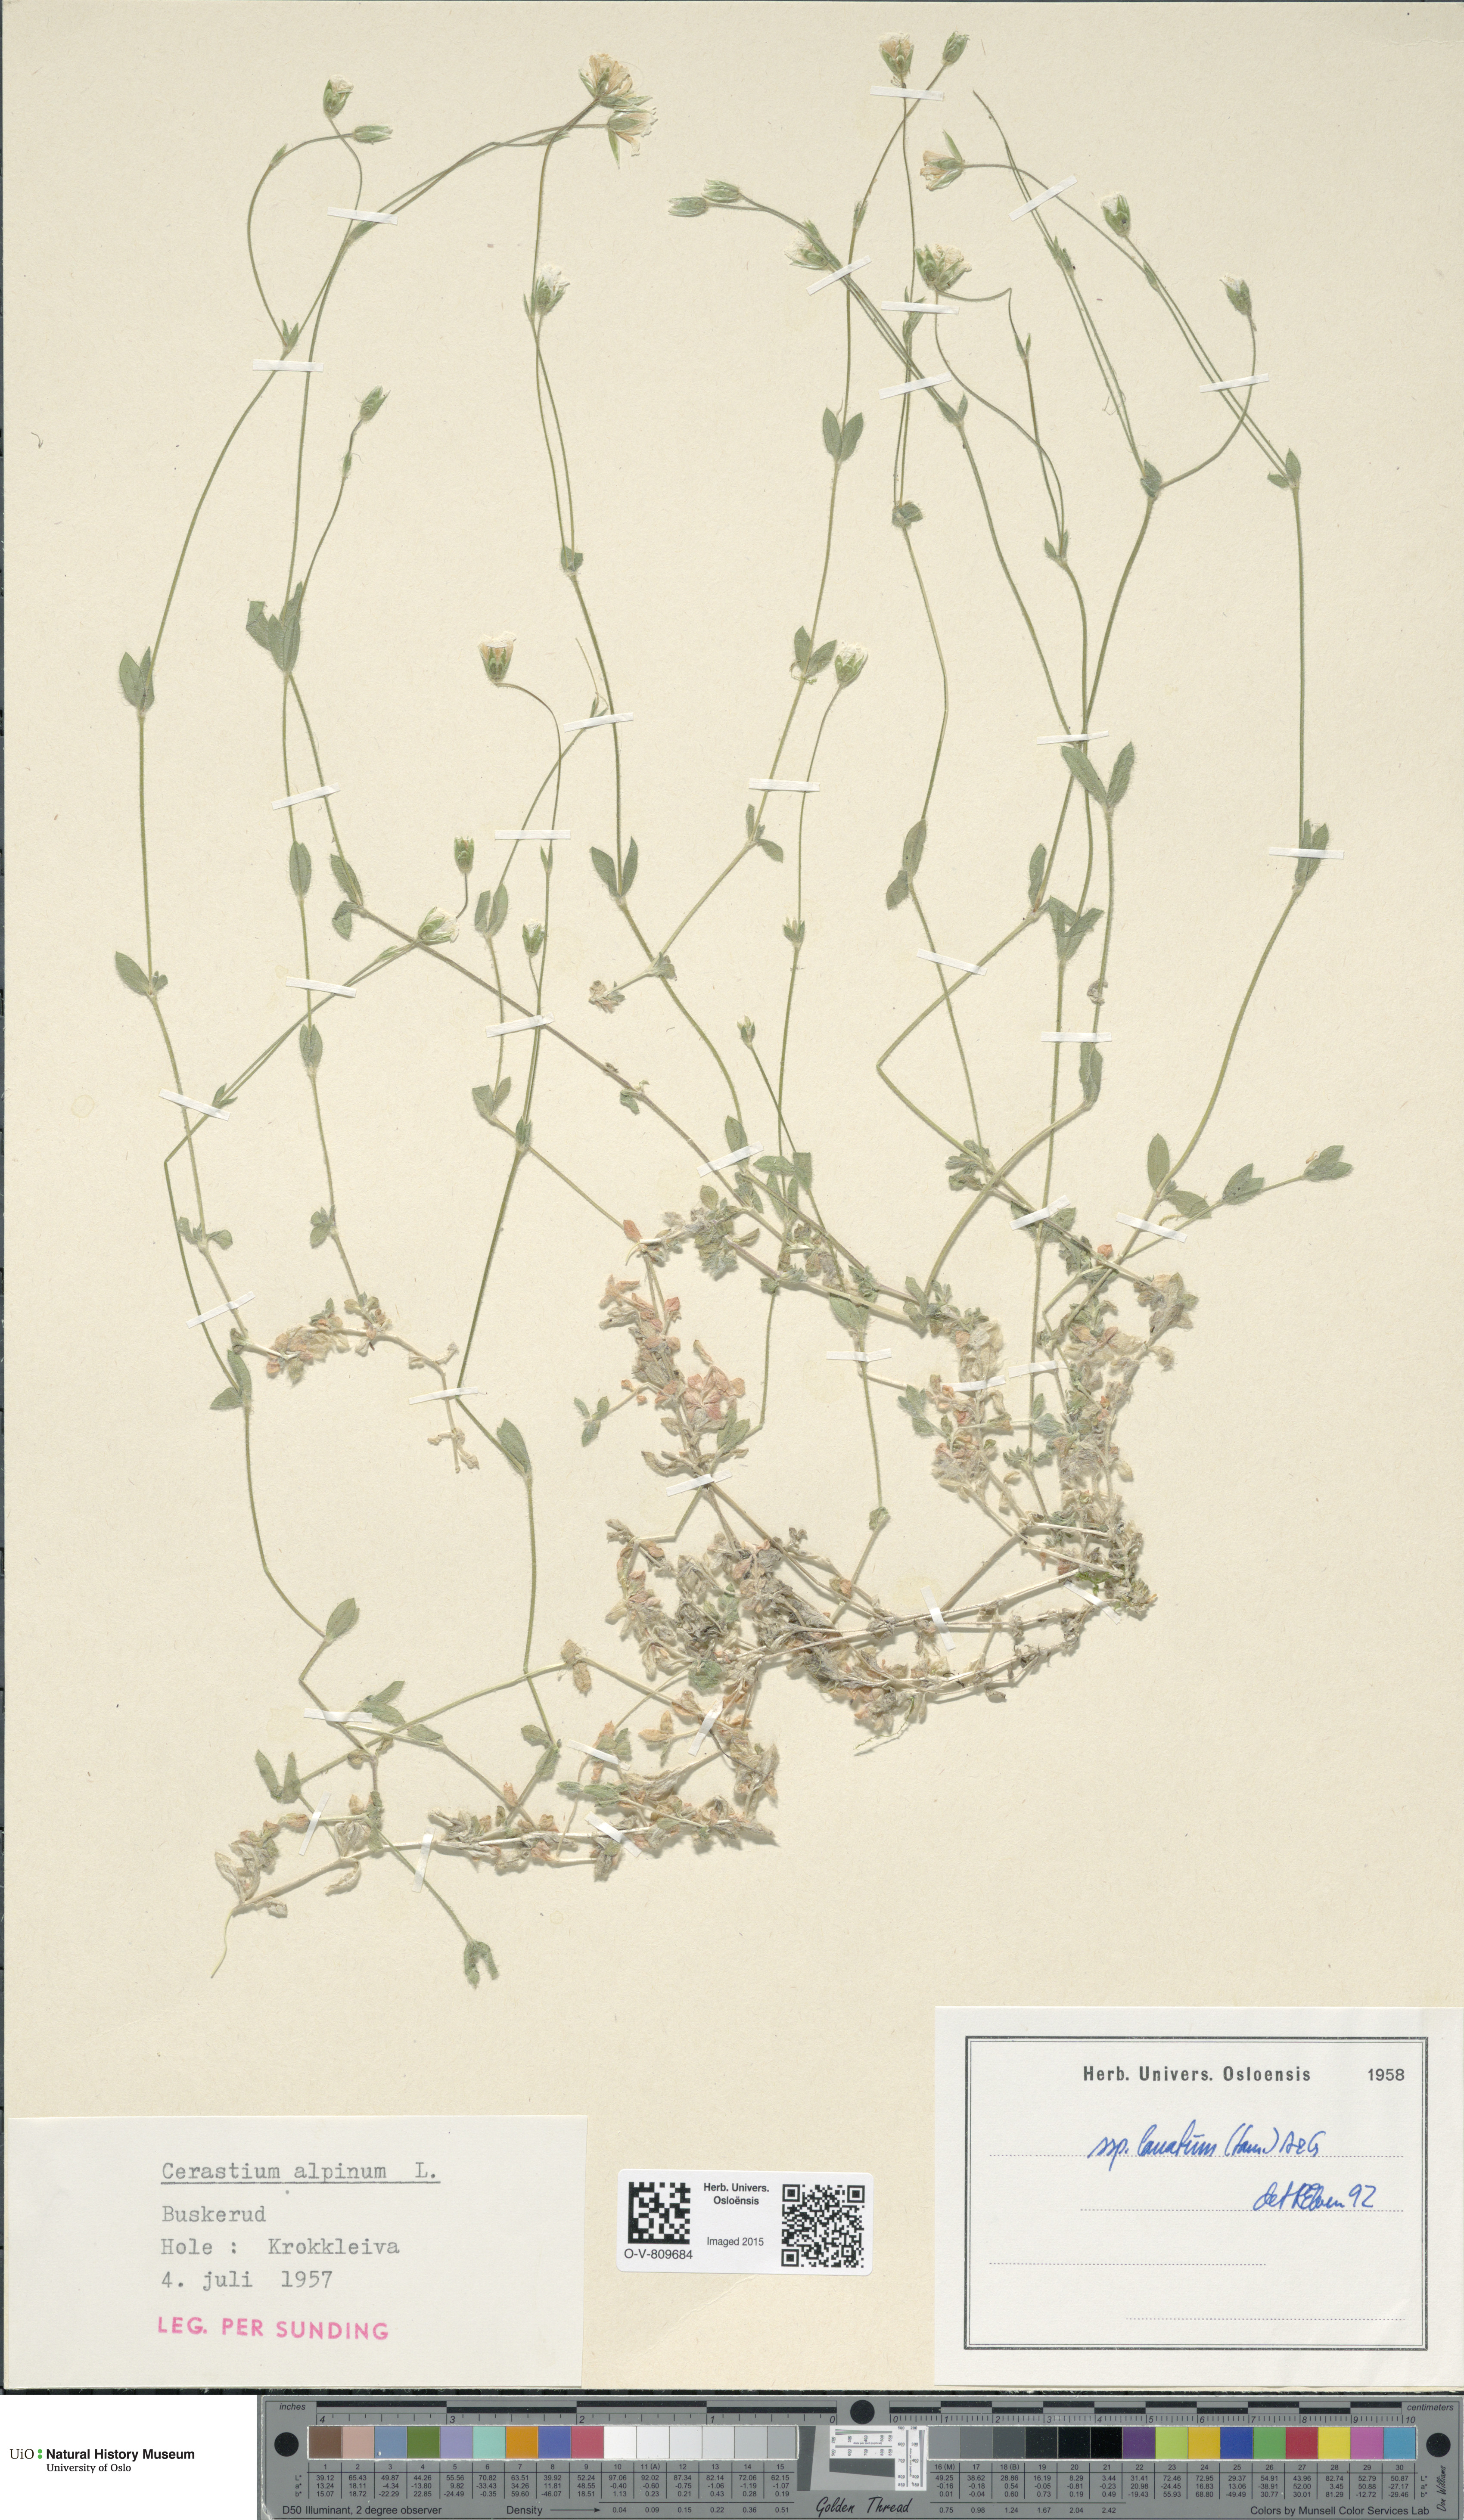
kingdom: Plantae
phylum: Tracheophyta
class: Magnoliopsida
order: Caryophyllales
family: Caryophyllaceae
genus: Cerastium
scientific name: Cerastium alpinum
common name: Alpine mouse-ear
